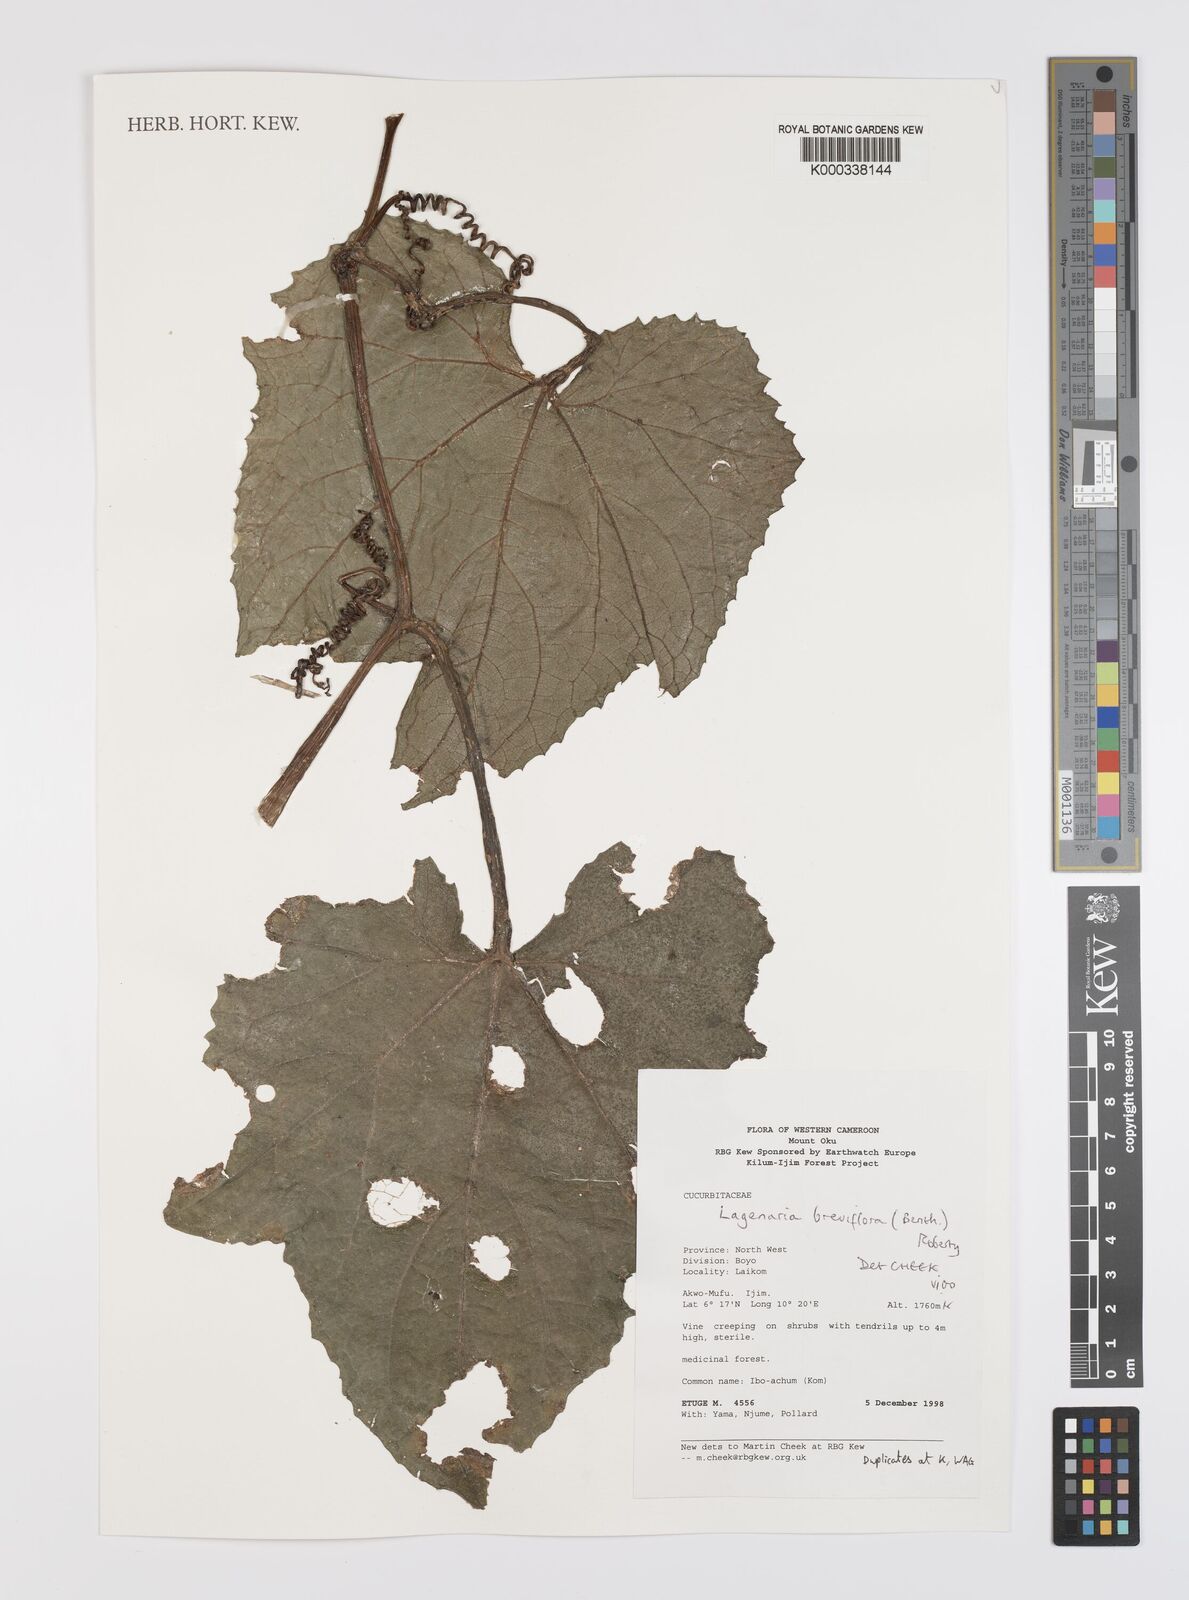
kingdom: Plantae
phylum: Tracheophyta
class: Magnoliopsida
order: Cucurbitales
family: Cucurbitaceae
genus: Lagenaria
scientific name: Lagenaria breviflora
